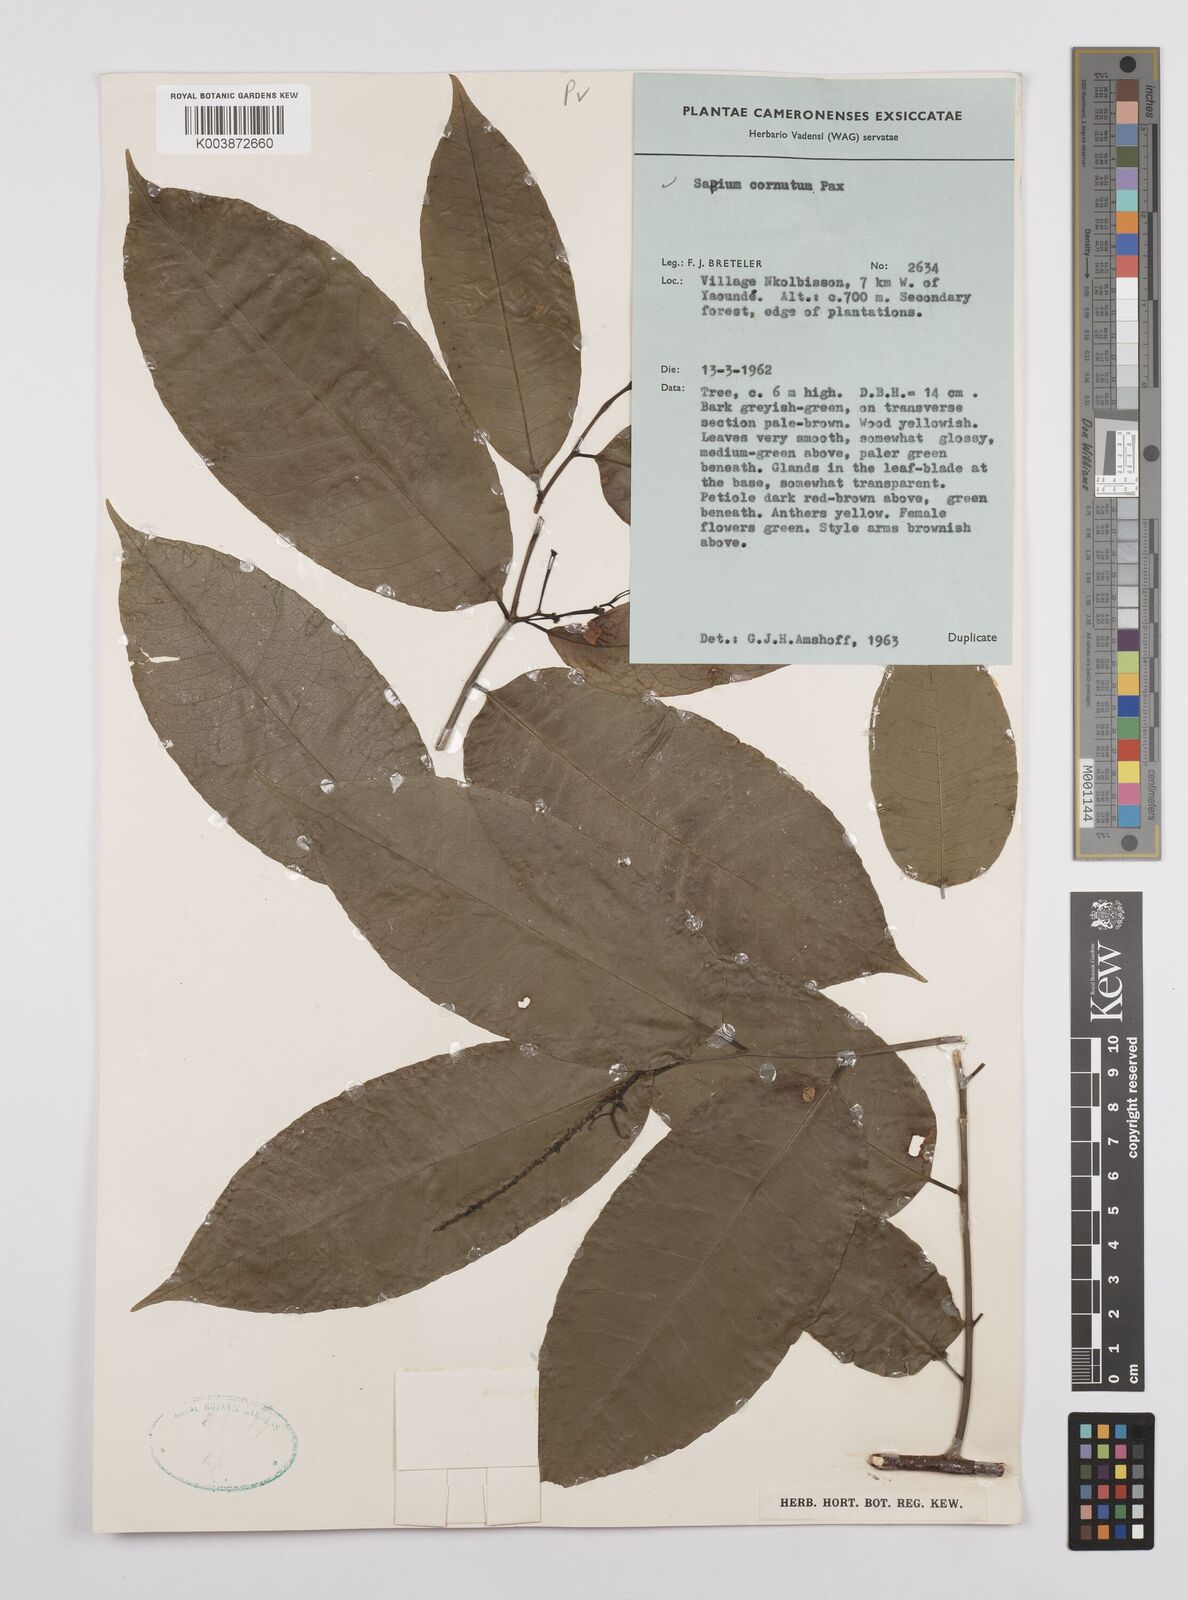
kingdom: Plantae
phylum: Tracheophyta
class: Magnoliopsida
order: Malpighiales
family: Euphorbiaceae
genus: Sclerocroton
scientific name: Sclerocroton cornutus
